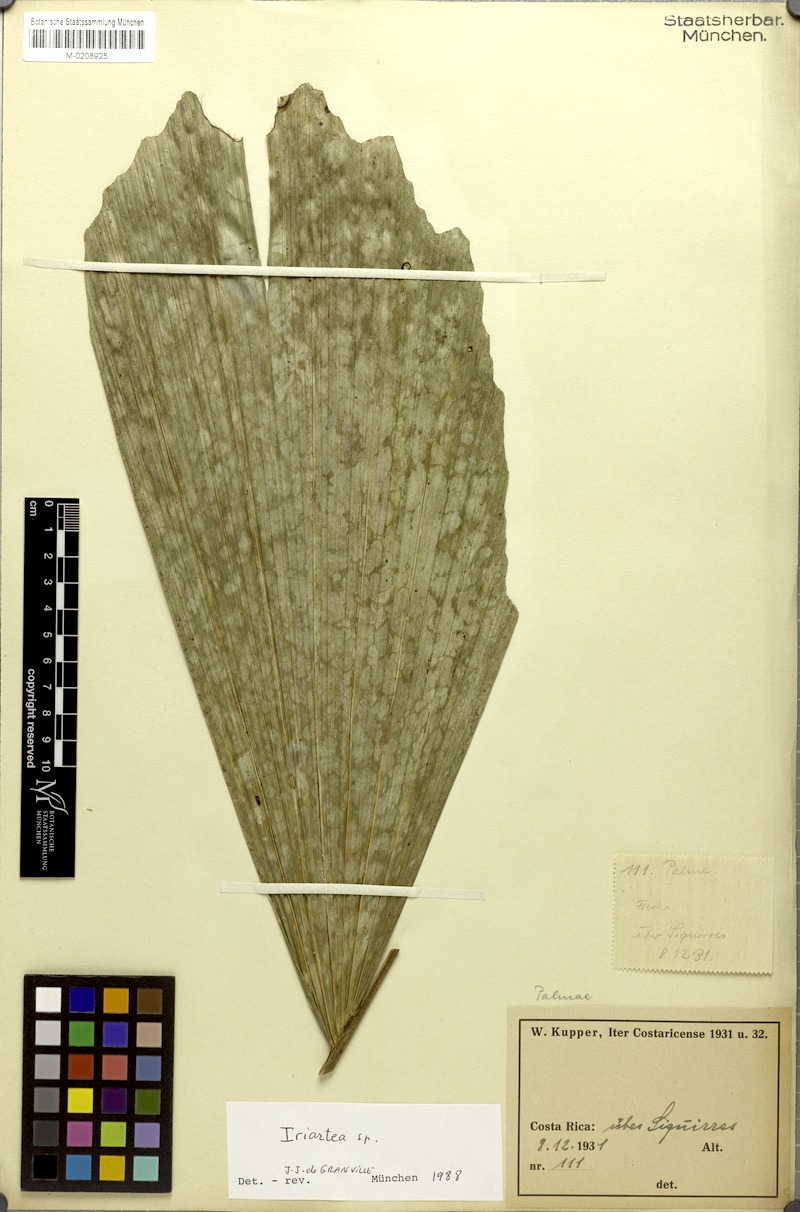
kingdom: Plantae
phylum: Tracheophyta
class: Liliopsida
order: Arecales
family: Arecaceae
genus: Iriartea
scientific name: Iriartea
